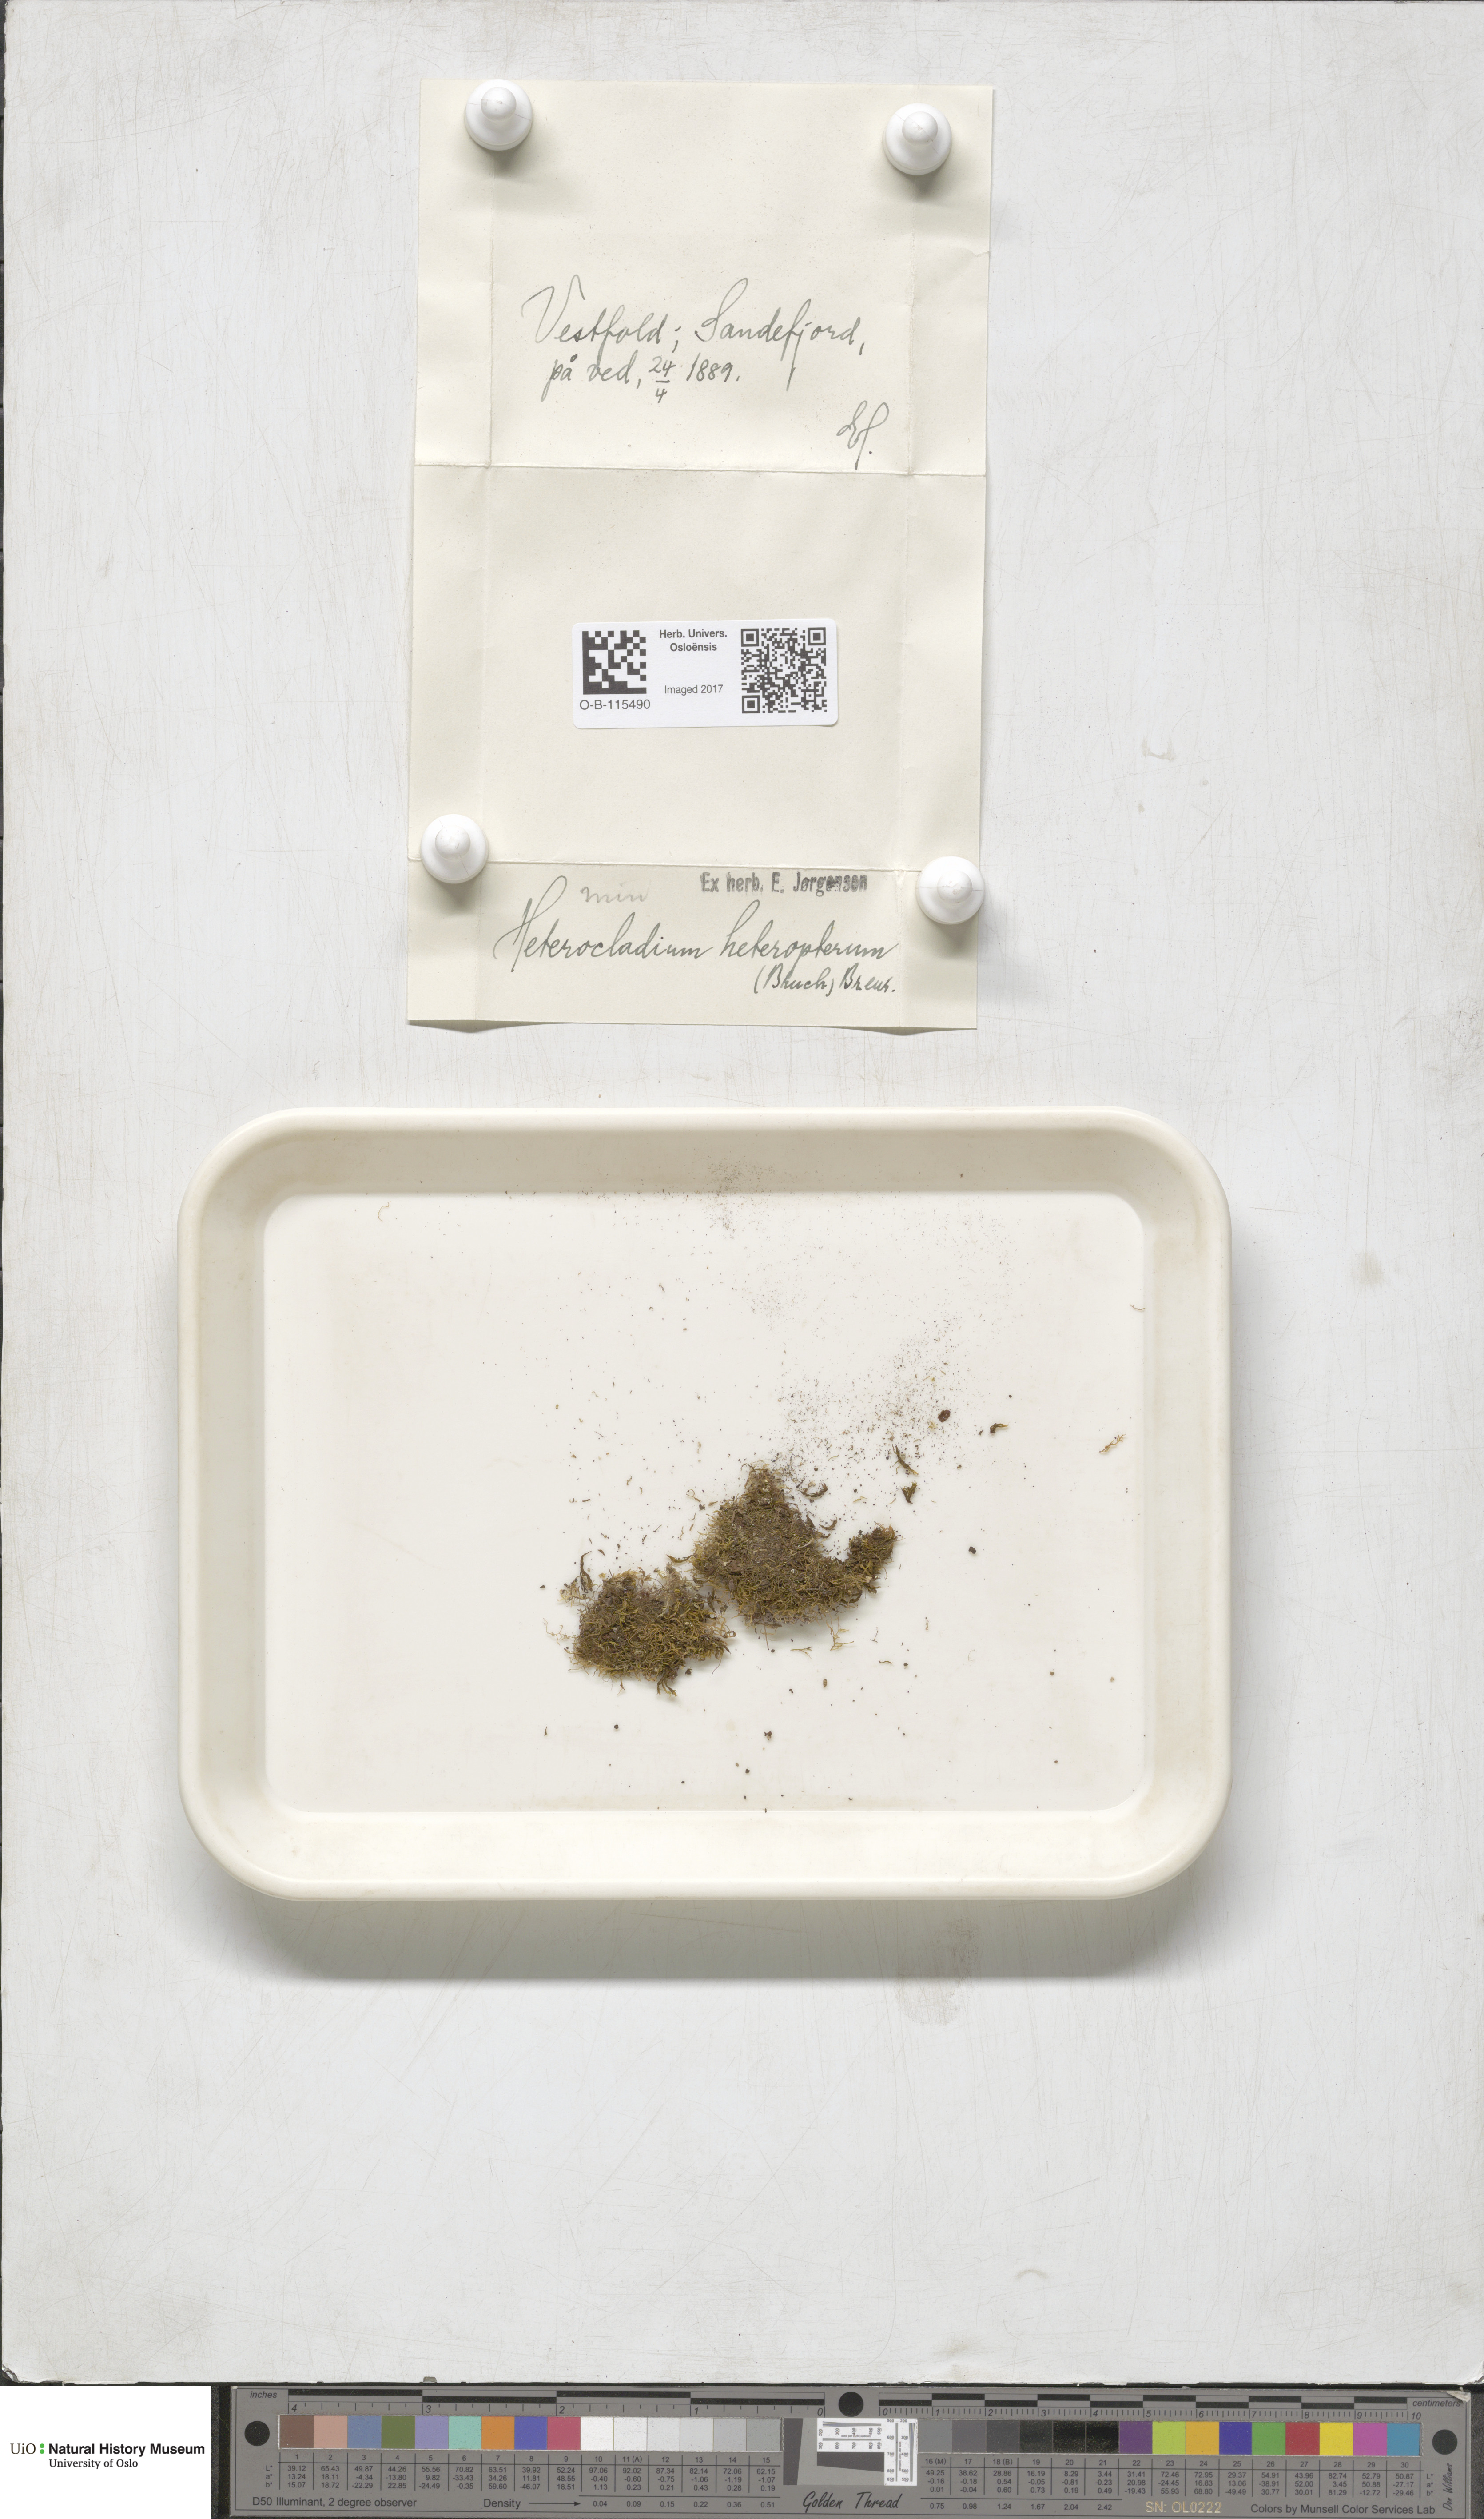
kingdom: Plantae
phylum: Bryophyta
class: Bryopsida
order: Hypnales
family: Lembophyllaceae
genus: Heterocladium
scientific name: Heterocladium heteropterum
